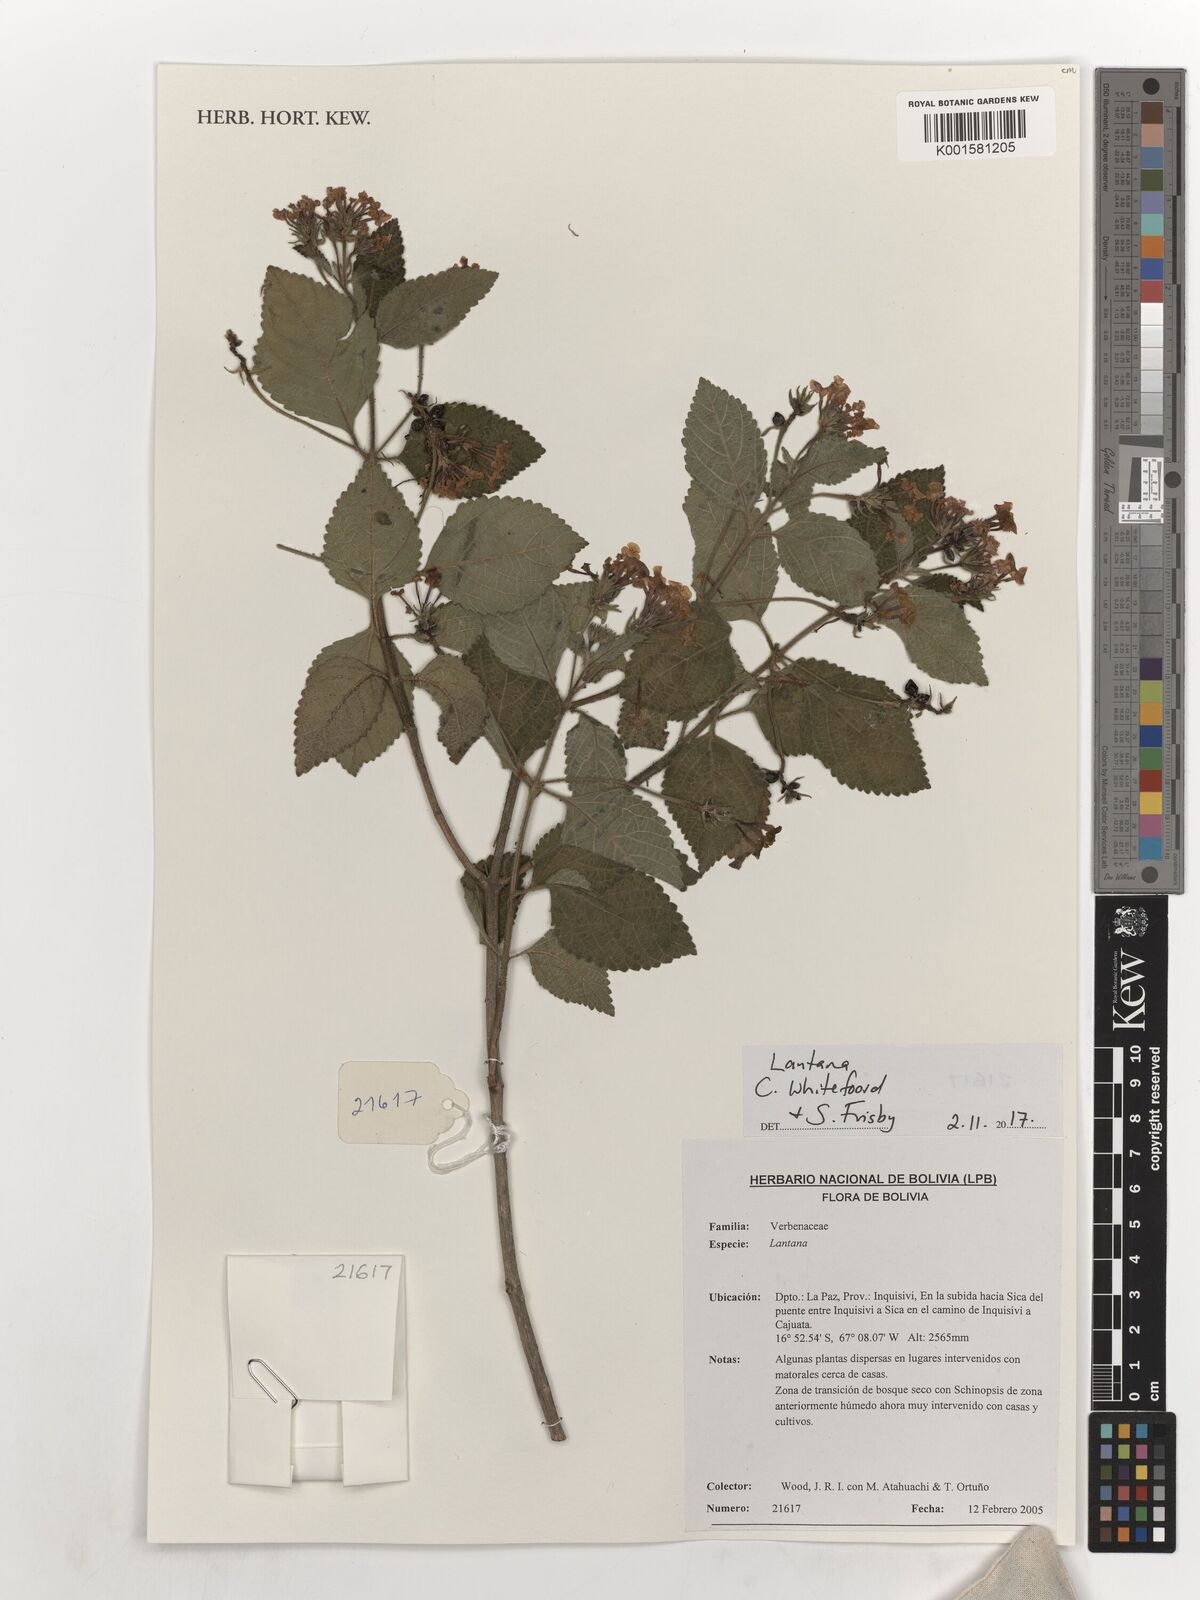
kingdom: Plantae
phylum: Tracheophyta
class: Magnoliopsida
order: Lamiales
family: Verbenaceae
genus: Lantana
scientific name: Lantana
